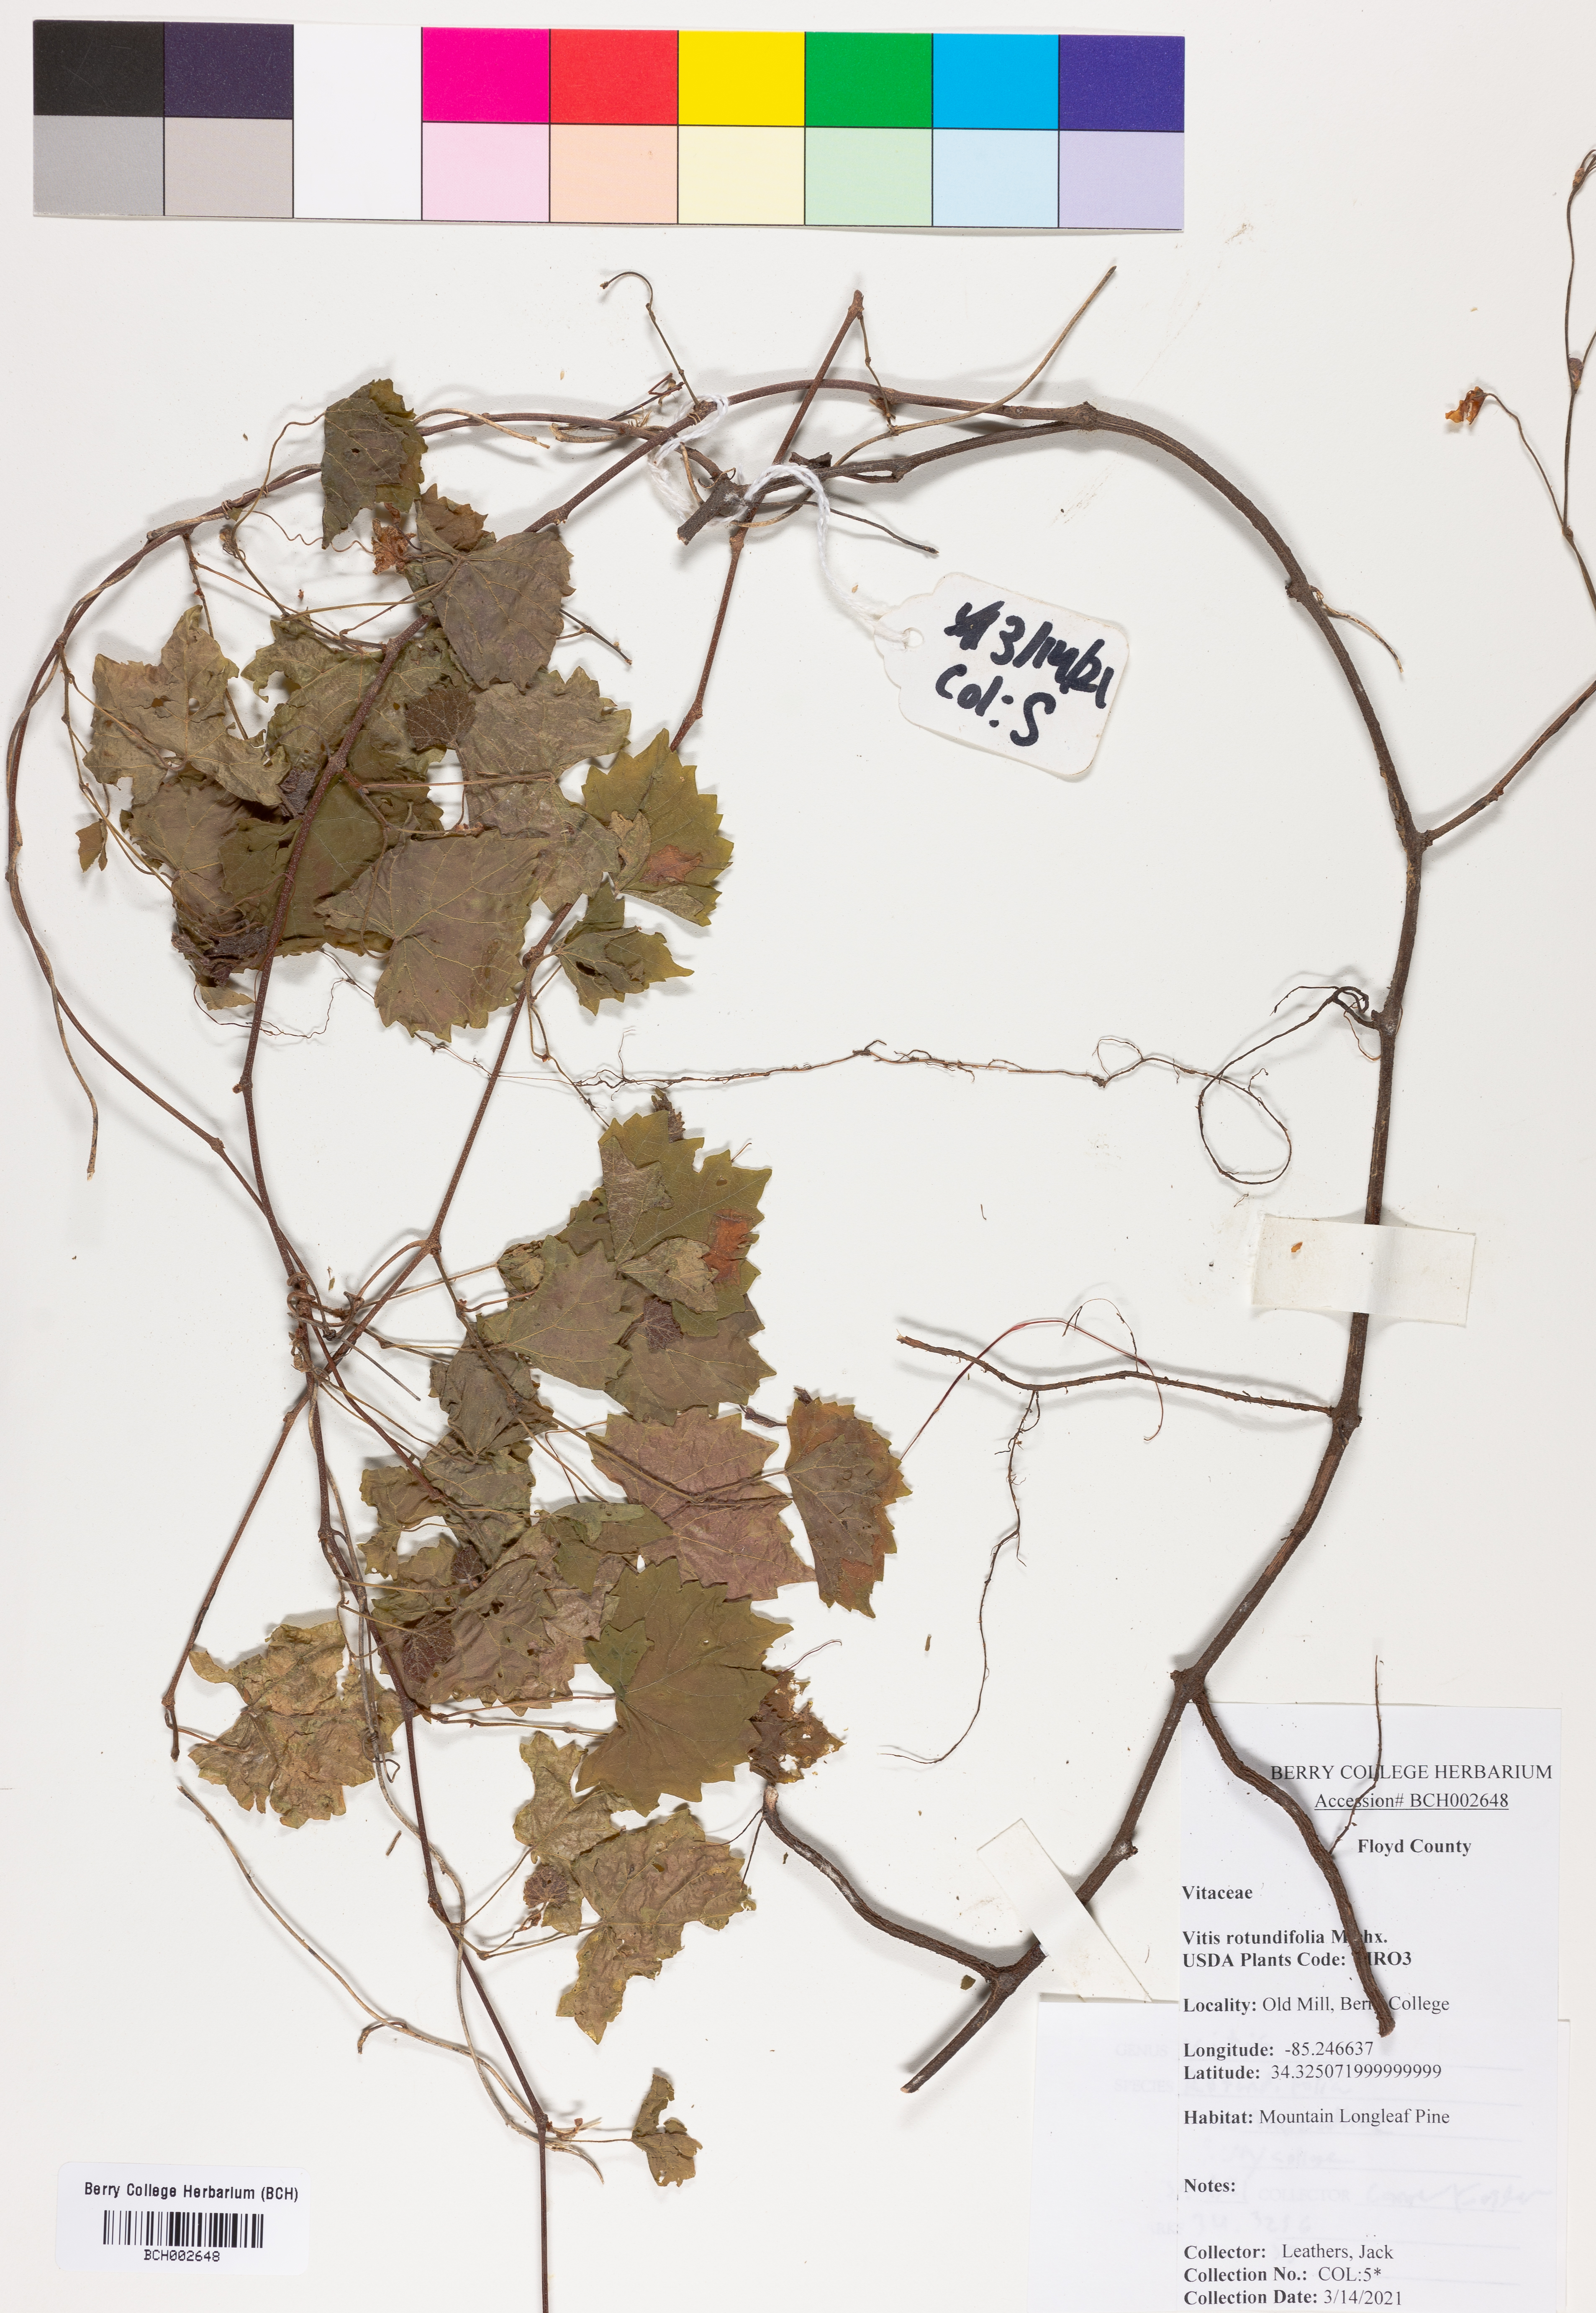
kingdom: Plantae
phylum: Tracheophyta
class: Magnoliopsida
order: Vitales
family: Vitaceae
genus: Vitis
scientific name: Vitis rotundifolia
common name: Muscadine grape
